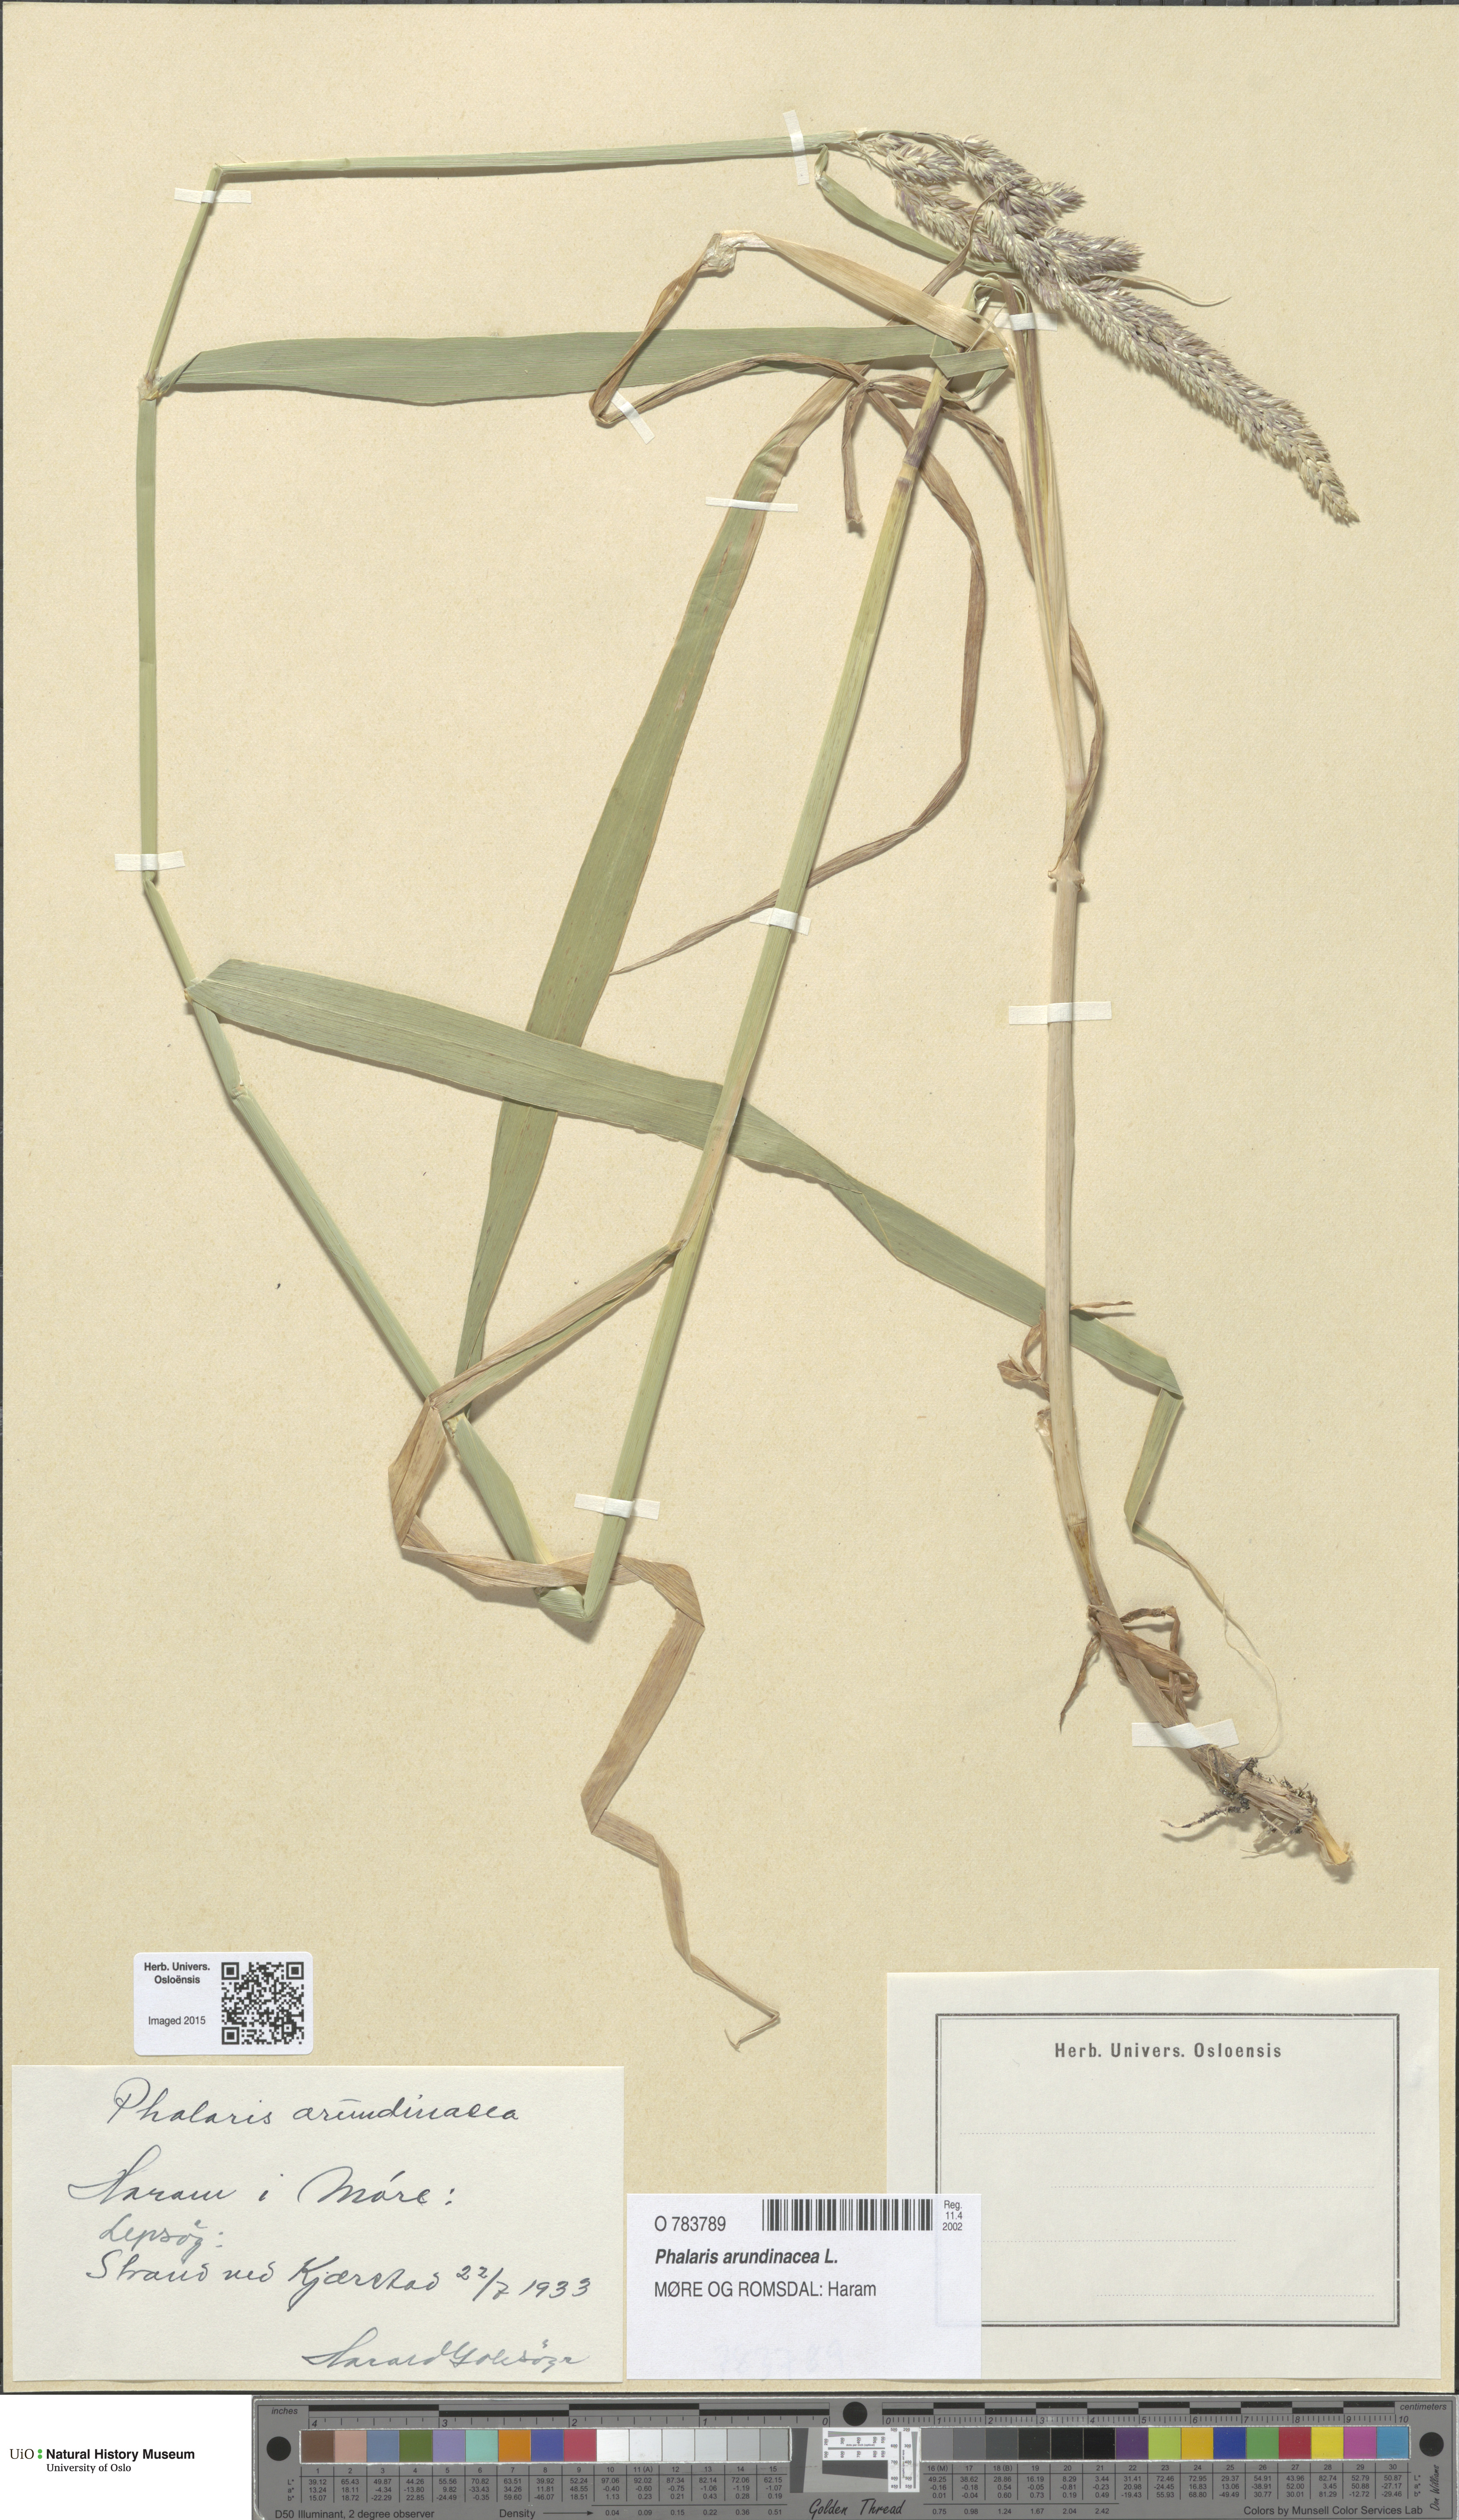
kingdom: Plantae
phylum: Tracheophyta
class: Liliopsida
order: Poales
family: Poaceae
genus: Phalaris
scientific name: Phalaris arundinacea
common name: Reed canary-grass
